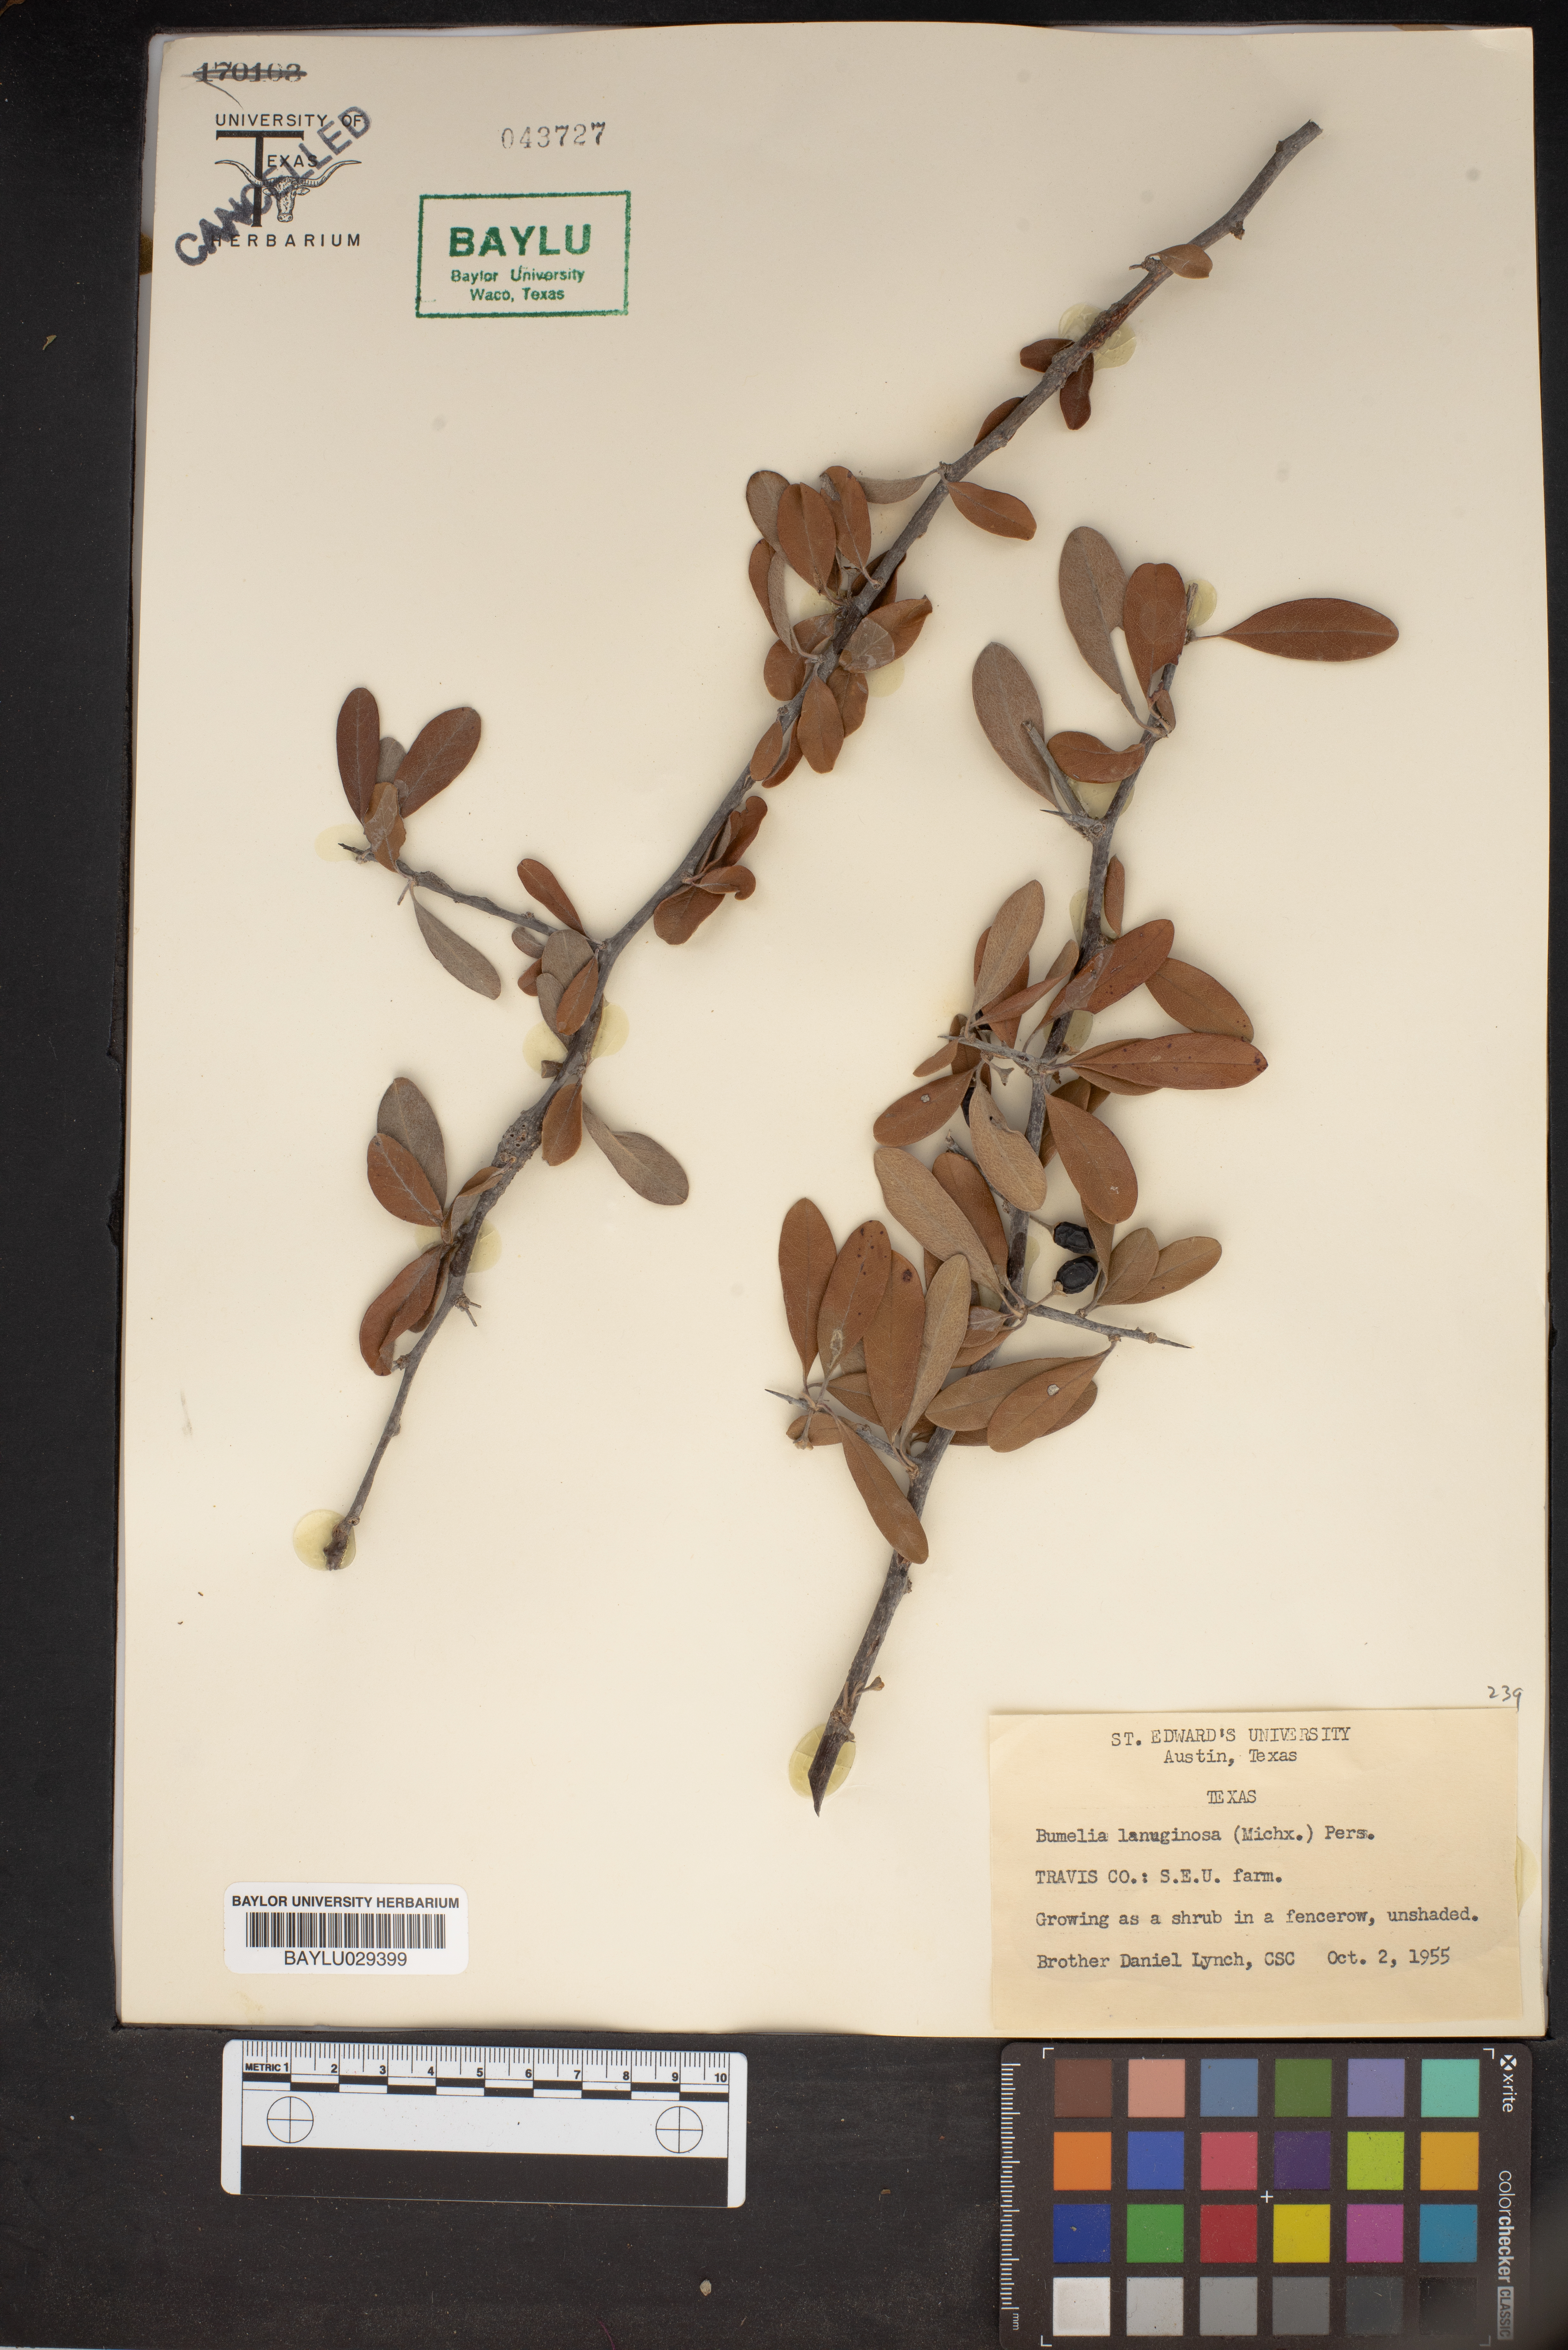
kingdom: Plantae
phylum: Tracheophyta
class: Magnoliopsida
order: Ericales
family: Sapotaceae
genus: Sideroxylon
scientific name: Sideroxylon lanuginosum
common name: Chittamwood
